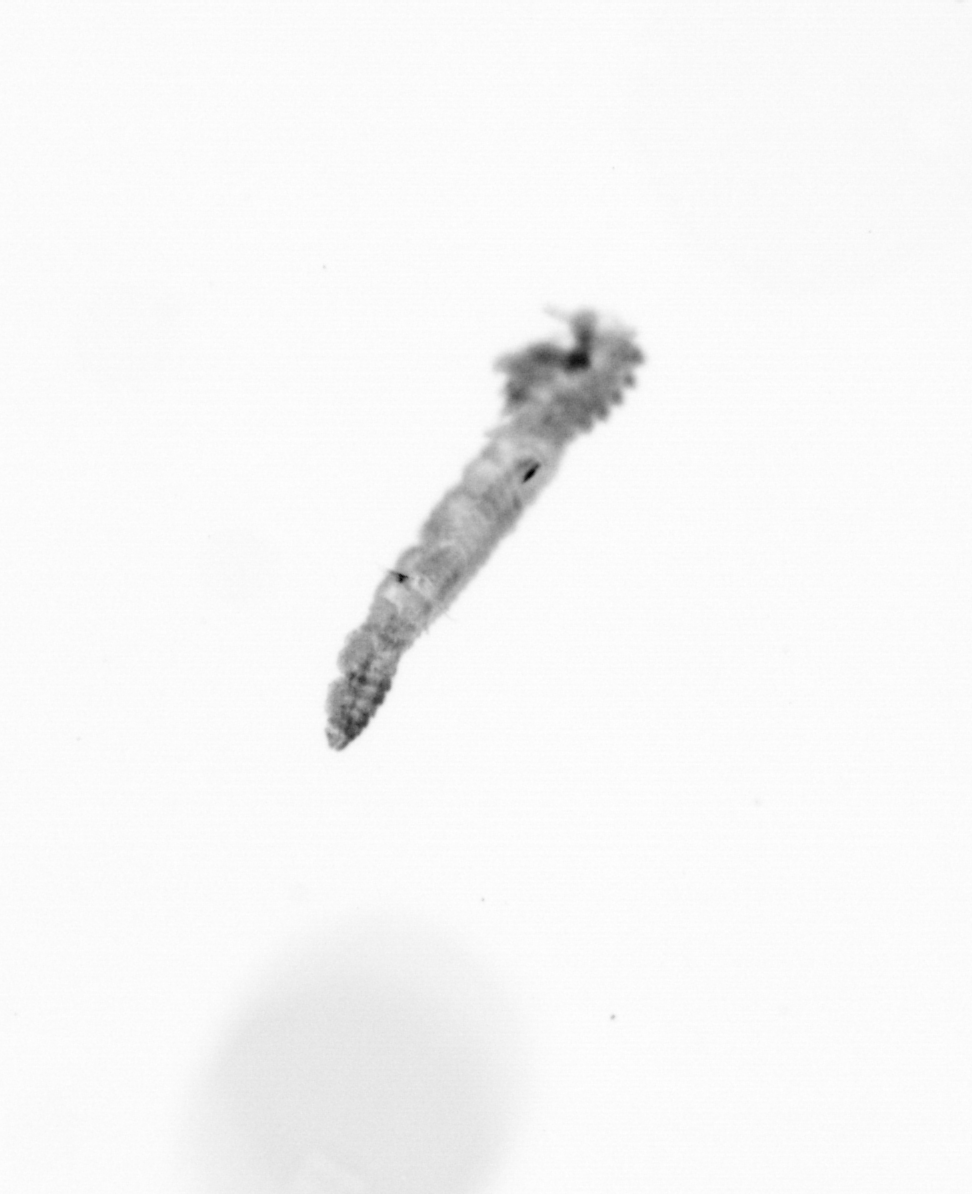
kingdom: Animalia
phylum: Annelida
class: Polychaeta
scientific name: Polychaeta
